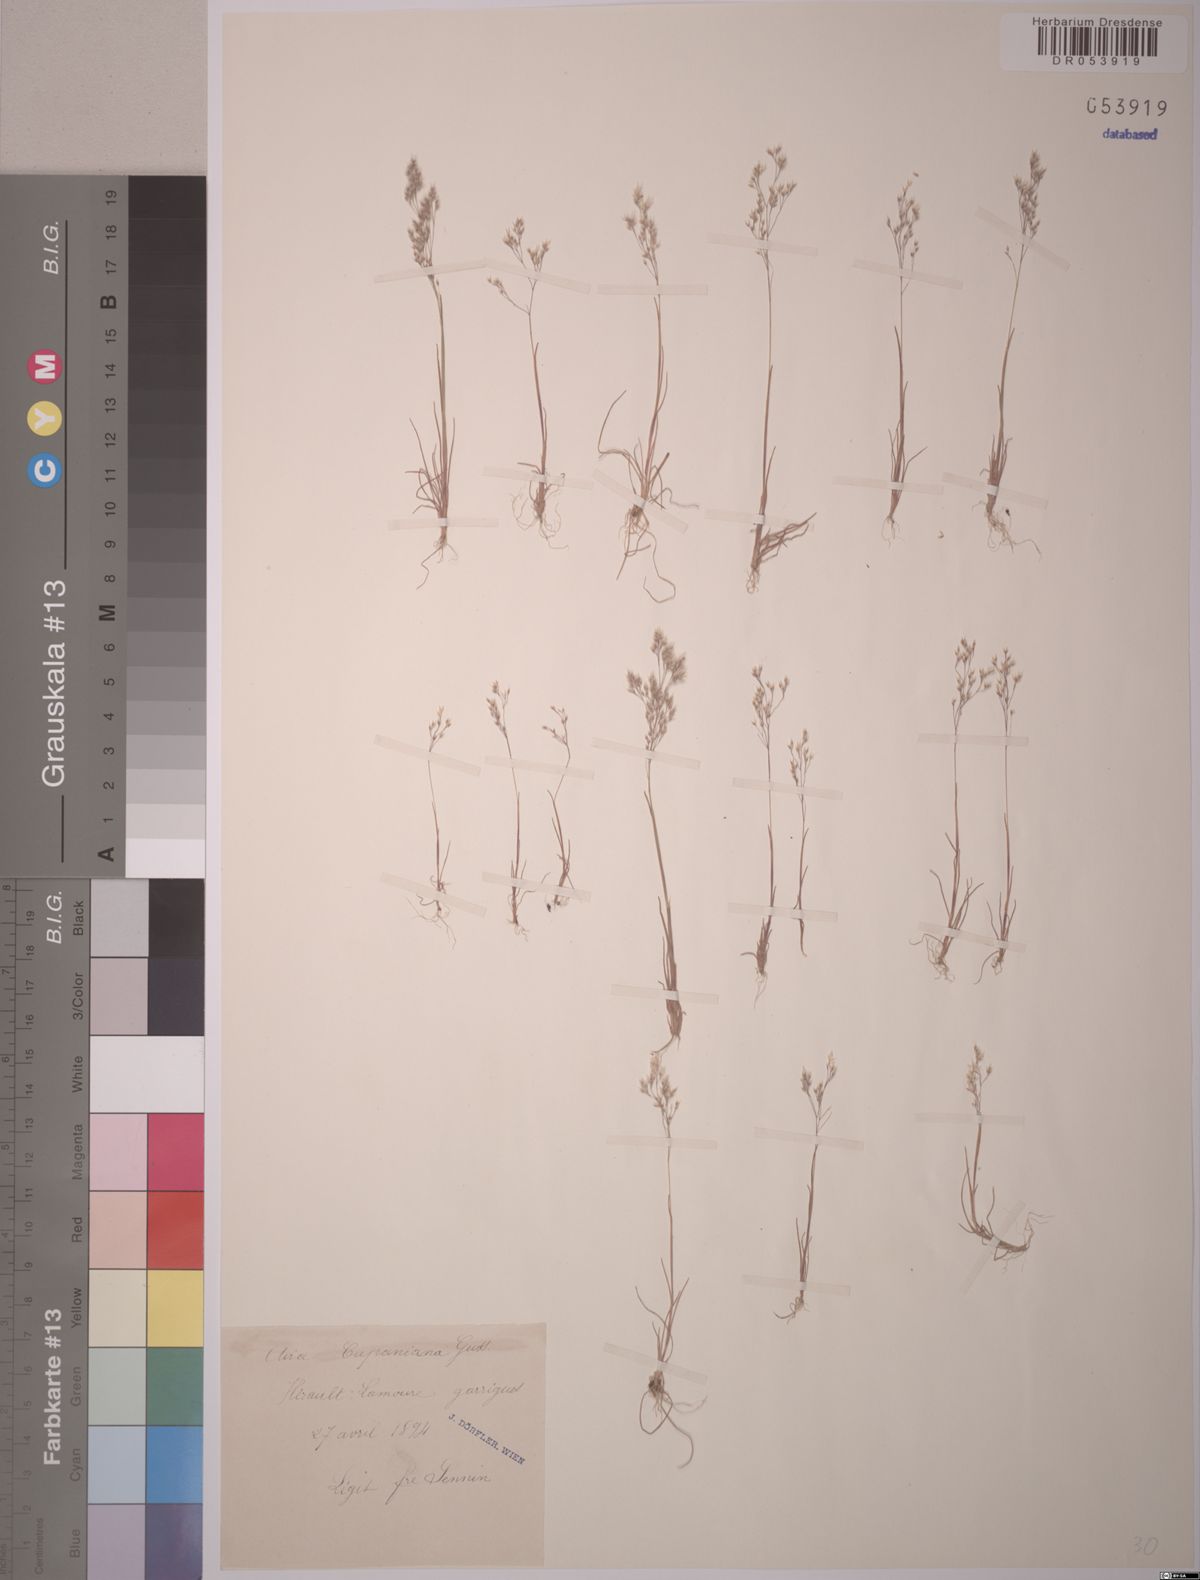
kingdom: Plantae
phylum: Tracheophyta
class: Liliopsida
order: Poales
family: Poaceae
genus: Aira
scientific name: Aira cupaniana
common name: Silver hairgrass
